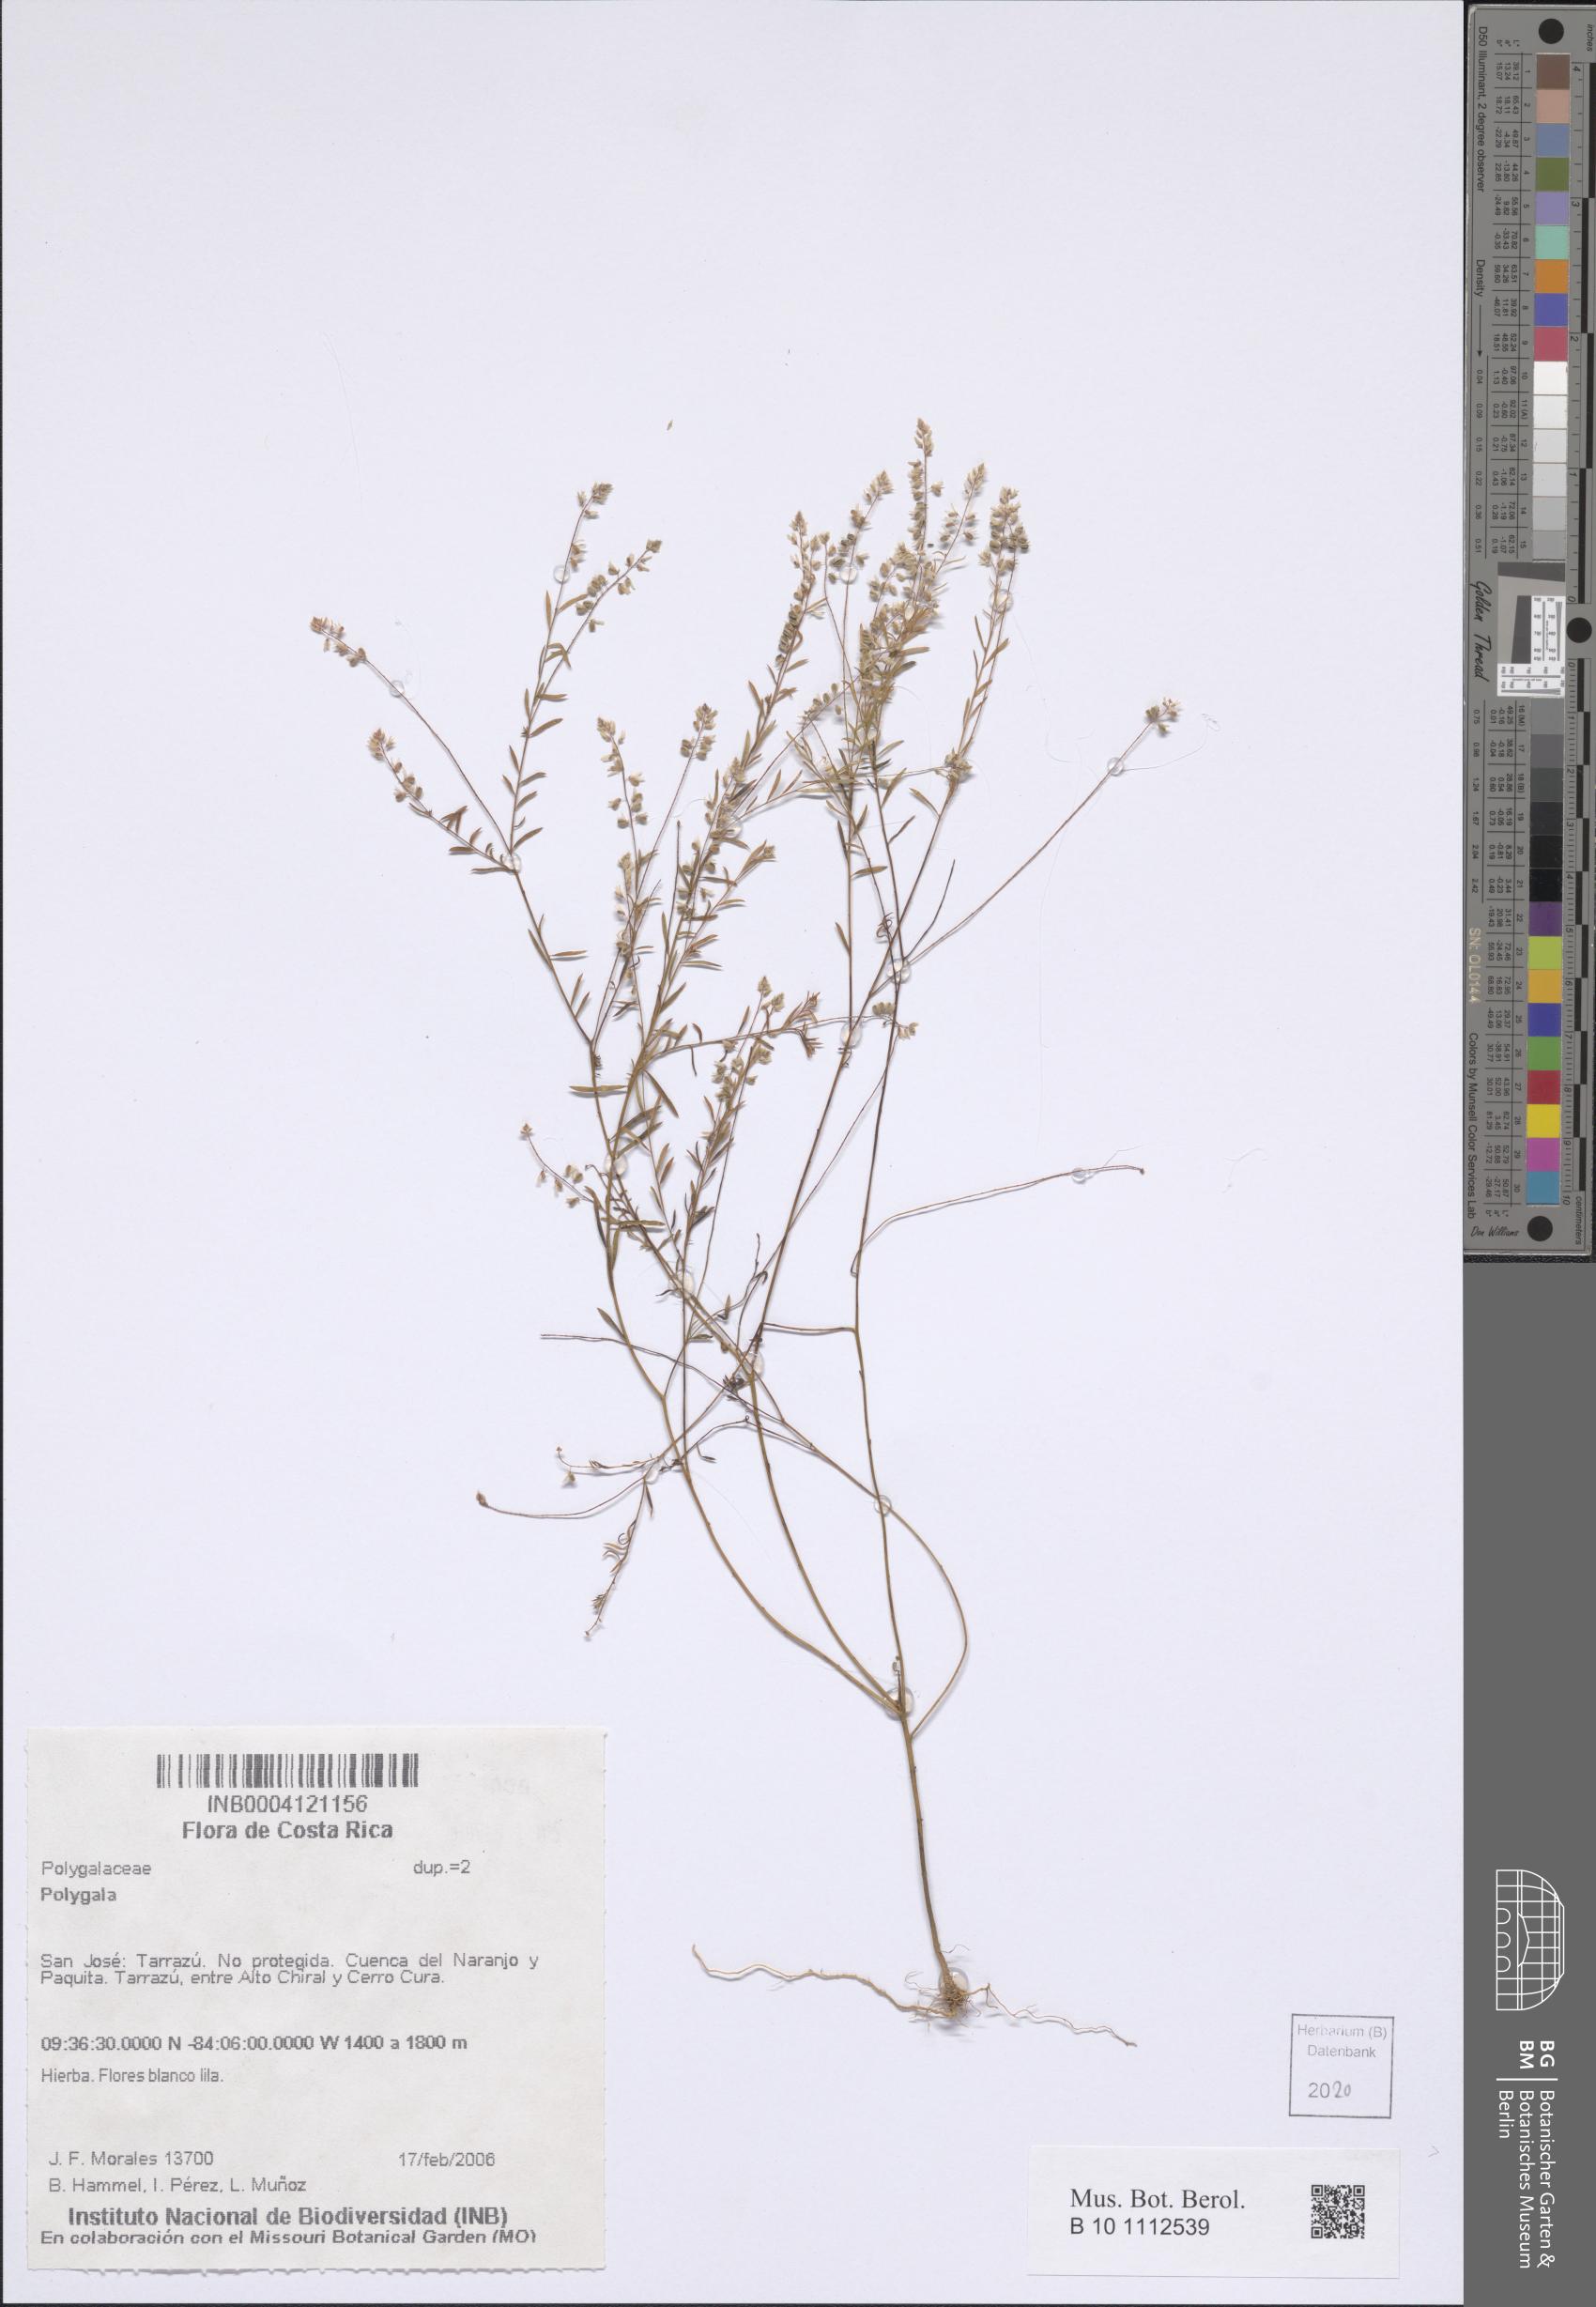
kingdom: Plantae
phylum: Tracheophyta
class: Magnoliopsida
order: Fabales
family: Polygalaceae
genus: Polygala
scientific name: Polygala
